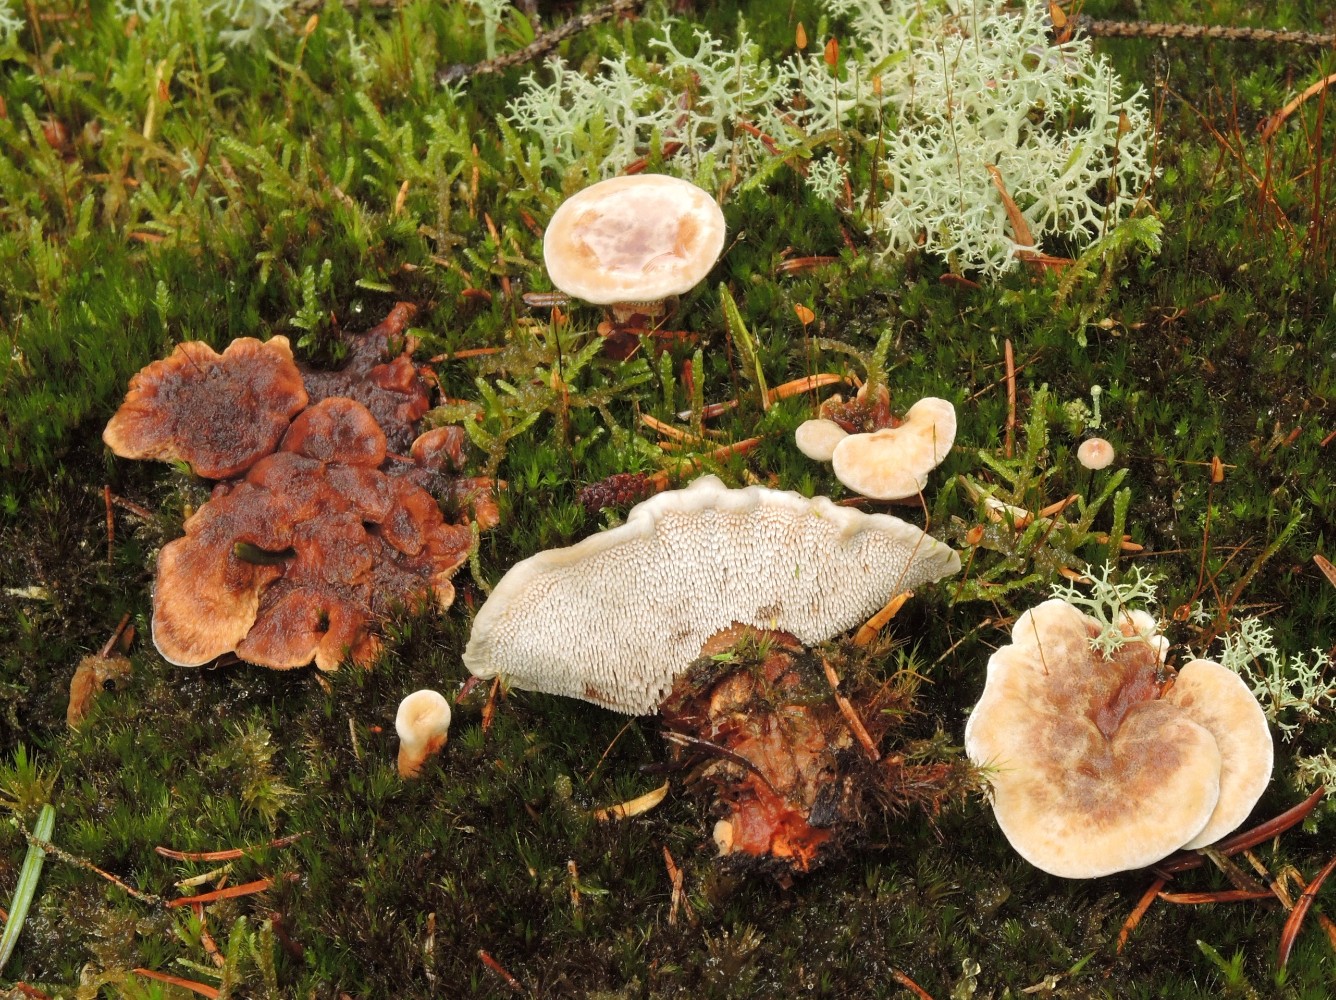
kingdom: Fungi
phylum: Basidiomycota
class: Agaricomycetes
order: Thelephorales
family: Bankeraceae
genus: Hydnellum
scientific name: Hydnellum aurantiacum
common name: orange korkpigsvamp
